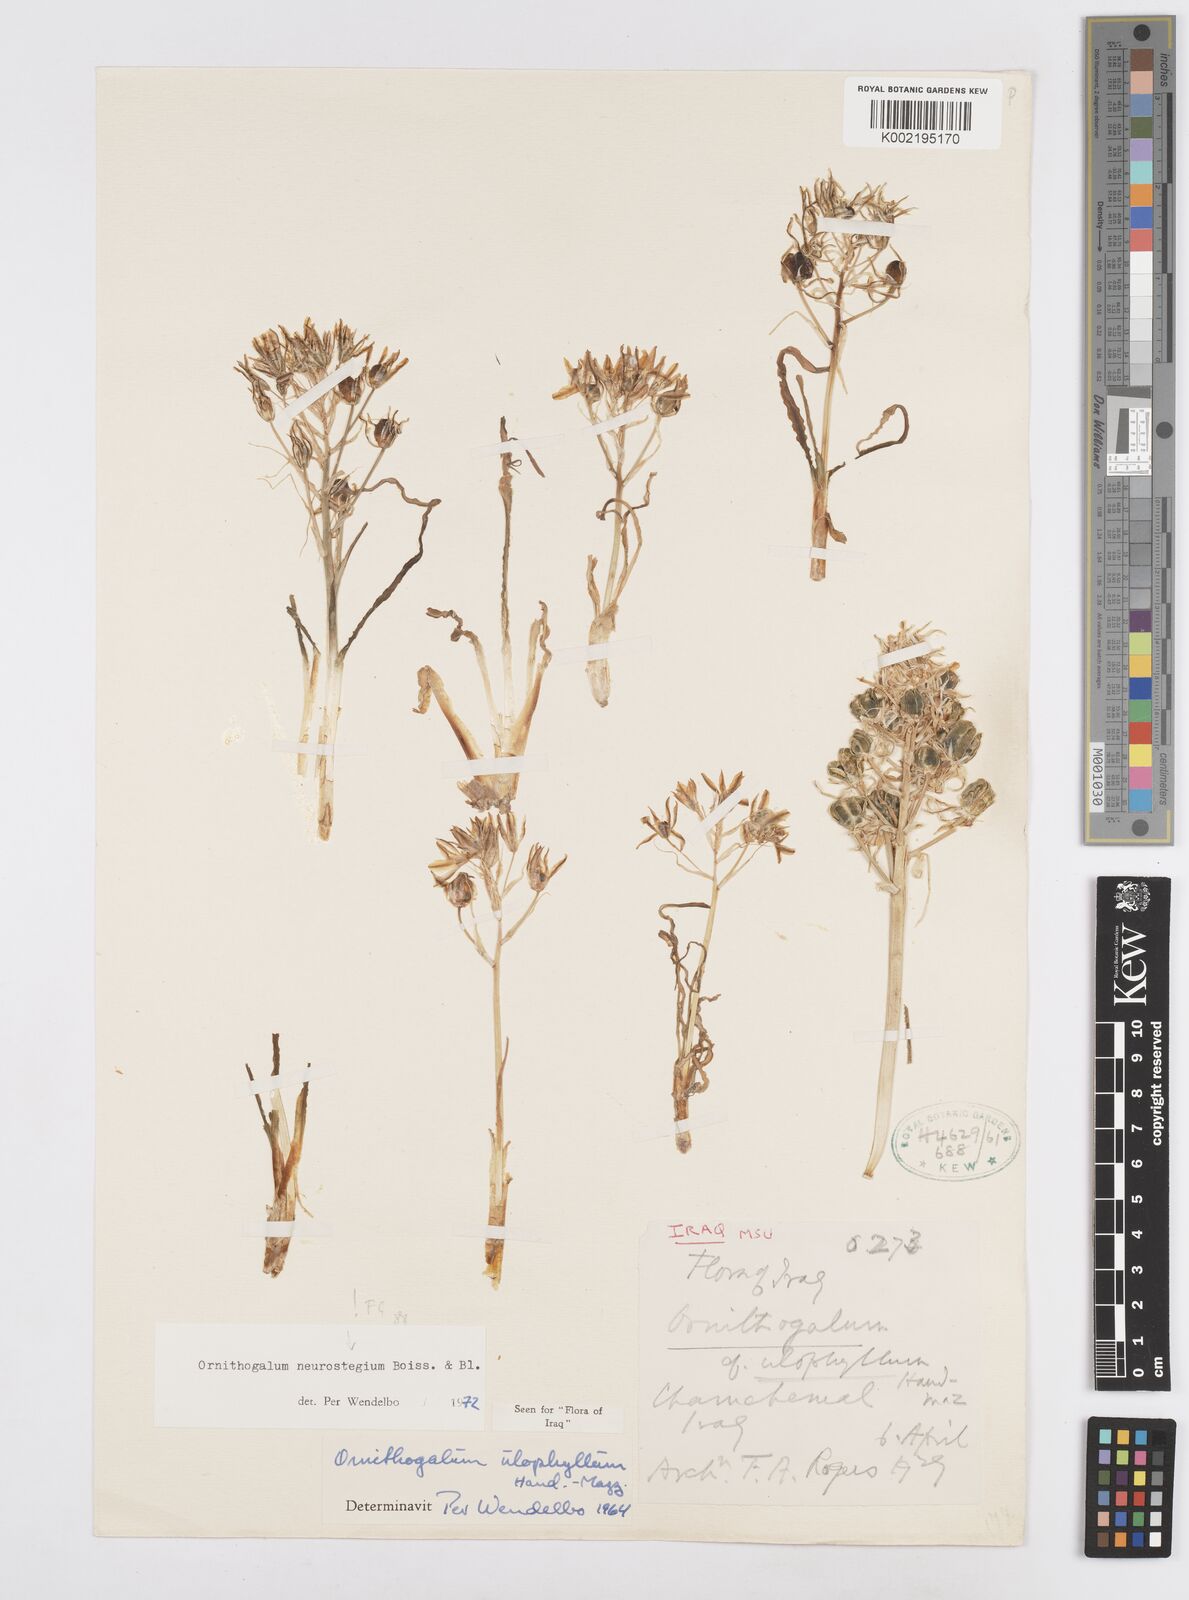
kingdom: Plantae
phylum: Tracheophyta
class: Liliopsida
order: Asparagales
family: Asparagaceae
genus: Ornithogalum
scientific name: Ornithogalum neurostegium
